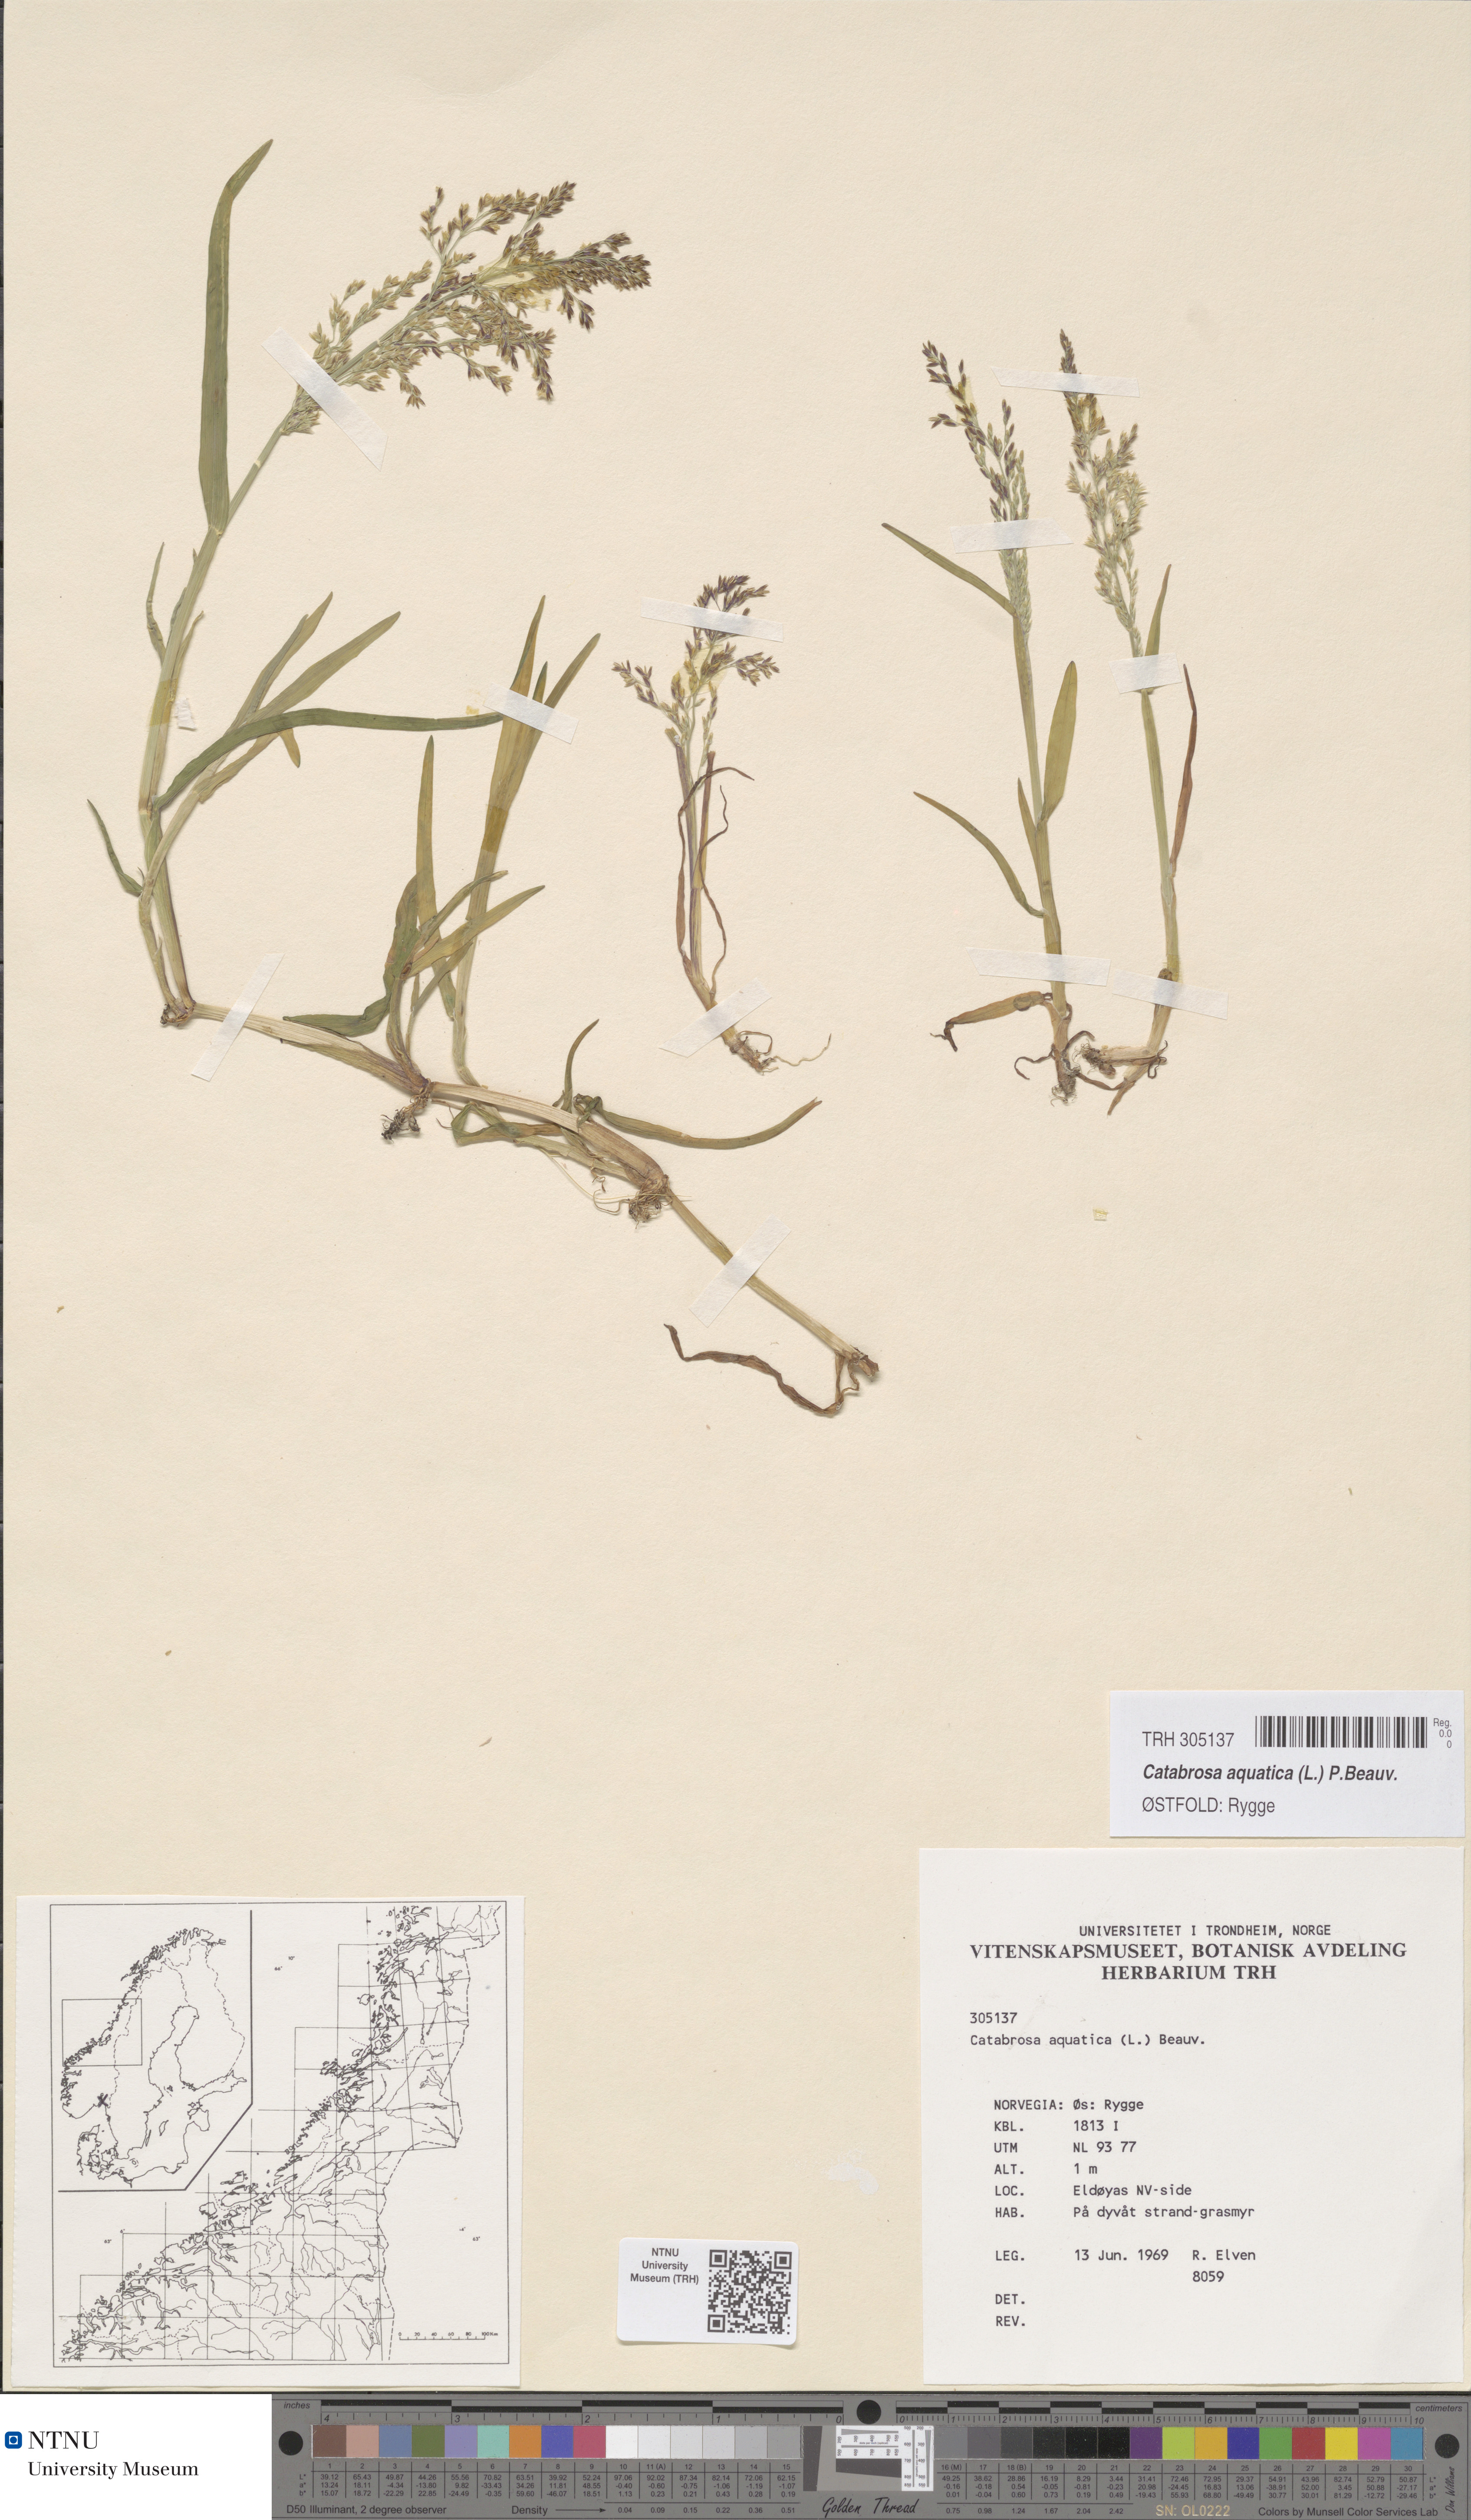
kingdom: Plantae
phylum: Tracheophyta
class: Liliopsida
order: Poales
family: Poaceae
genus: Catabrosa
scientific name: Catabrosa aquatica
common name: Whorl-grass
